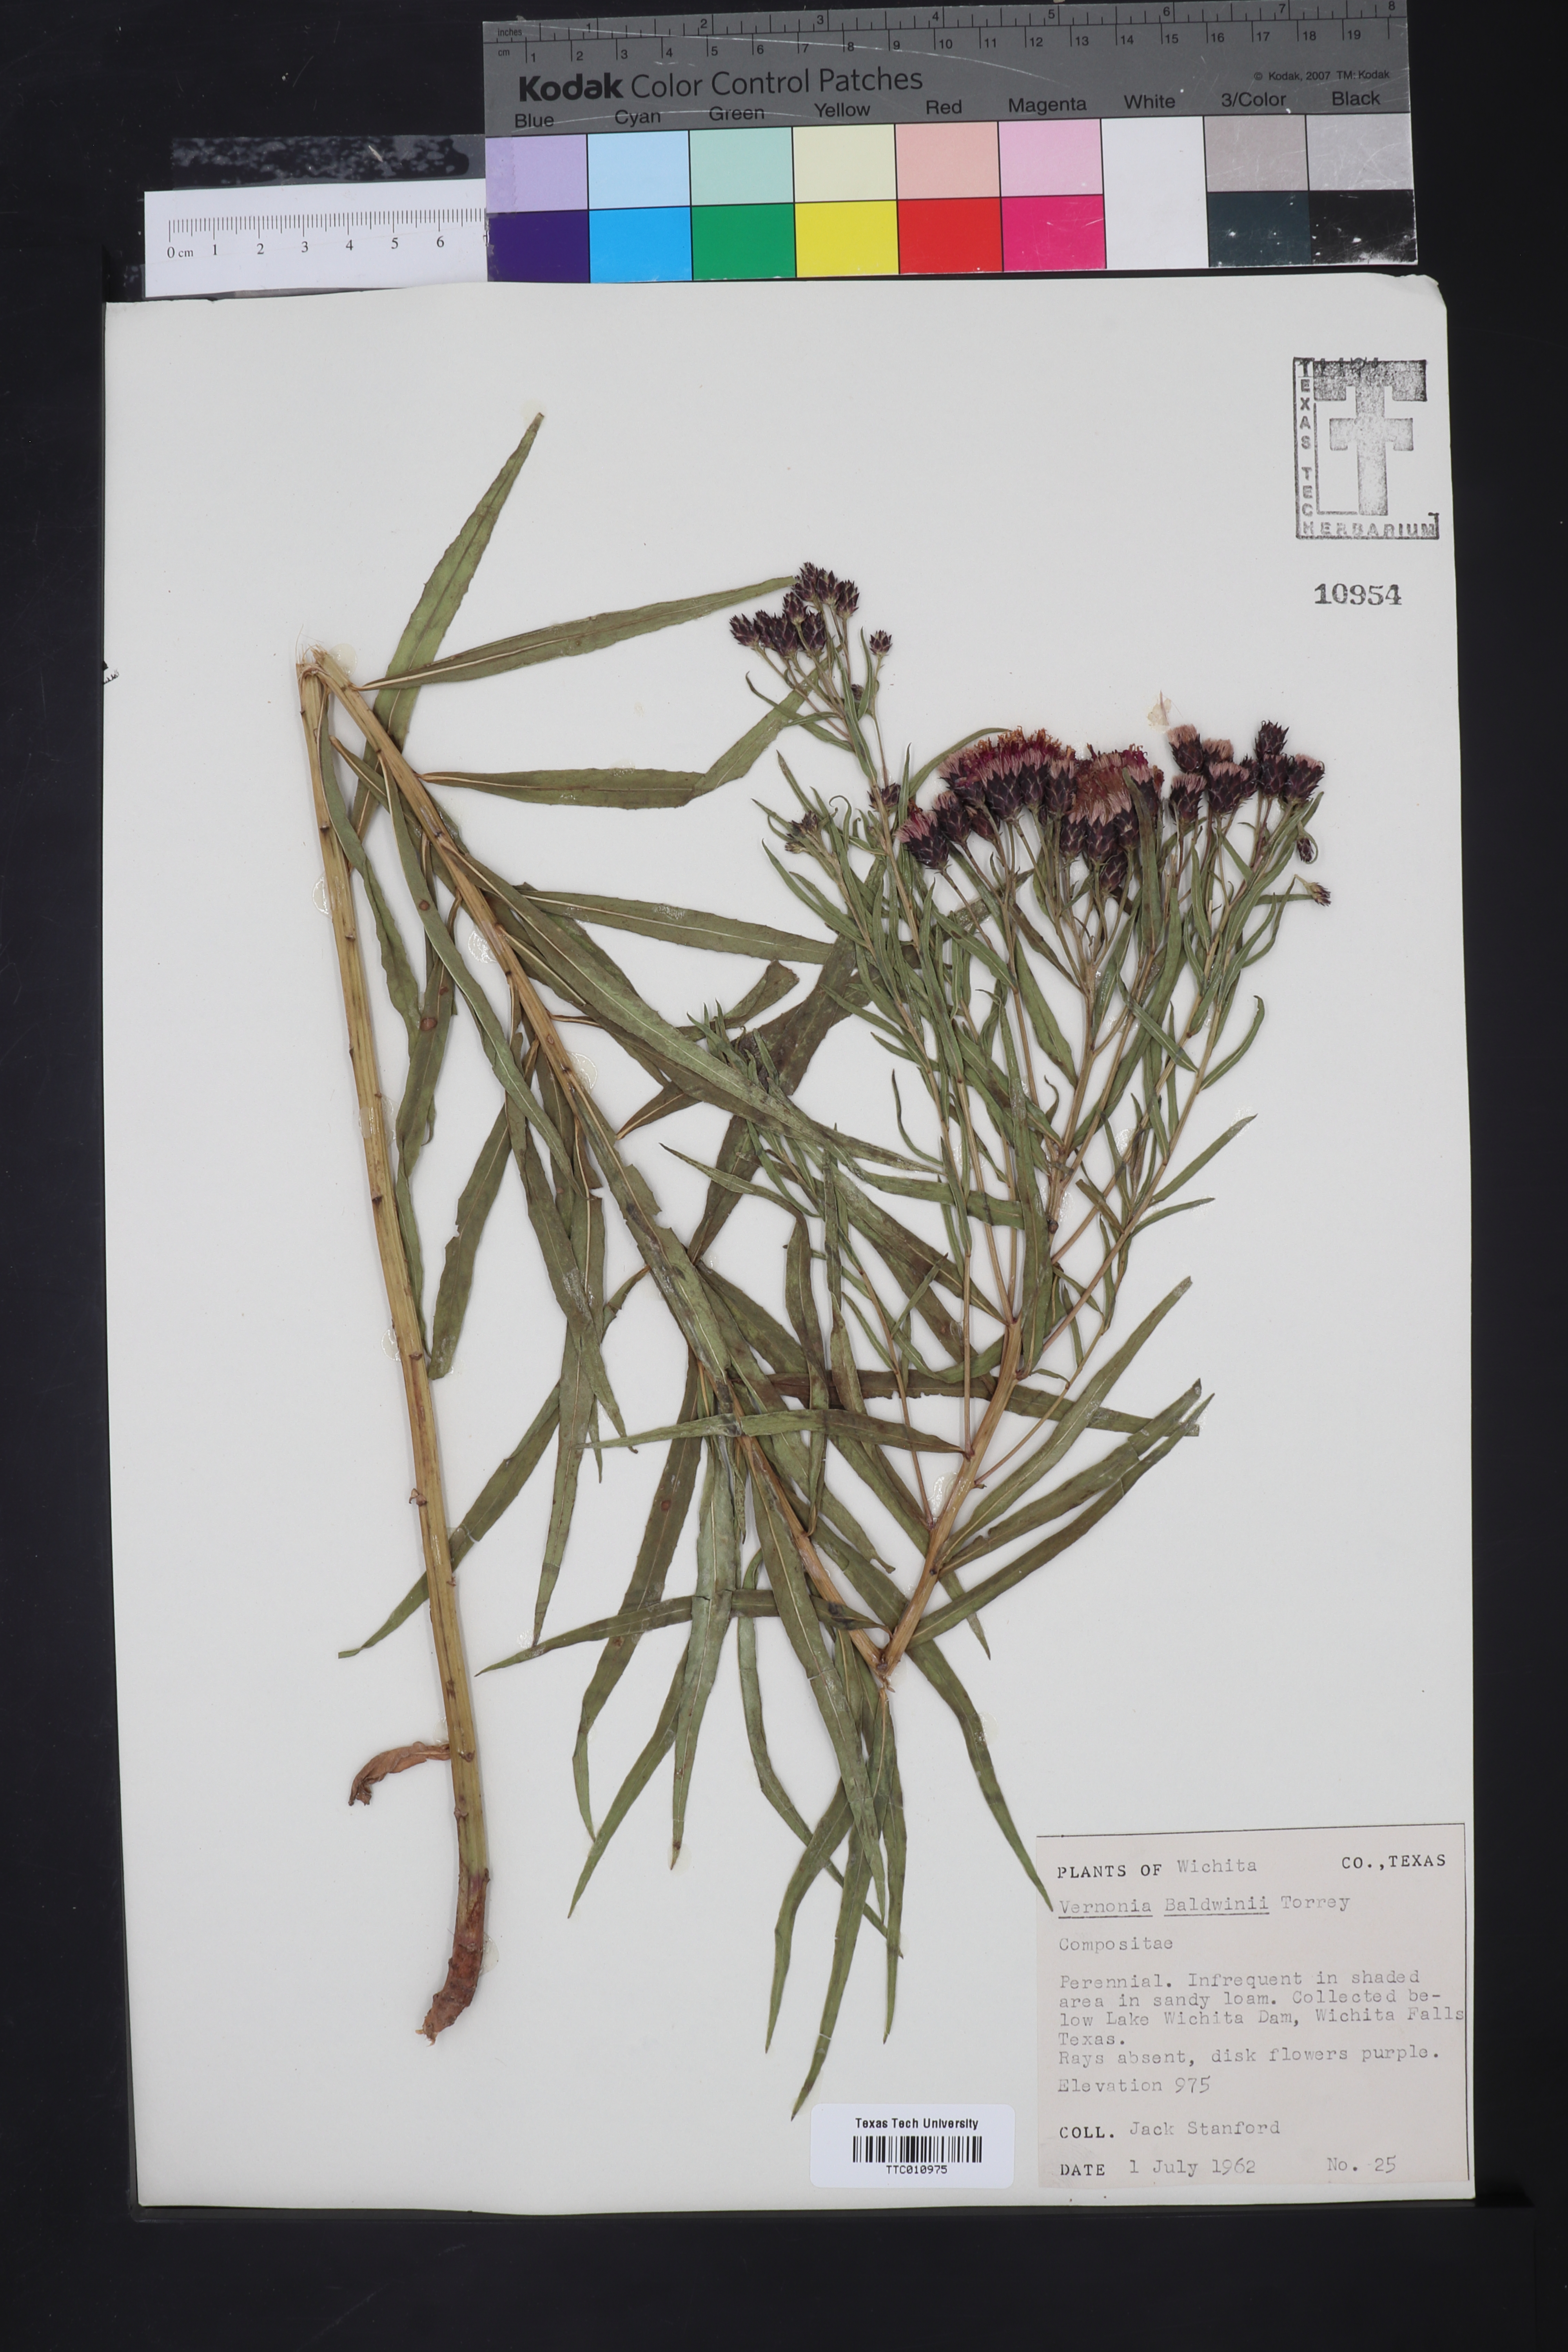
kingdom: Plantae
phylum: Tracheophyta
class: Magnoliopsida
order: Asterales
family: Asteraceae
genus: Vernonia
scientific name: Vernonia baldwinii
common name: Western ironweed
